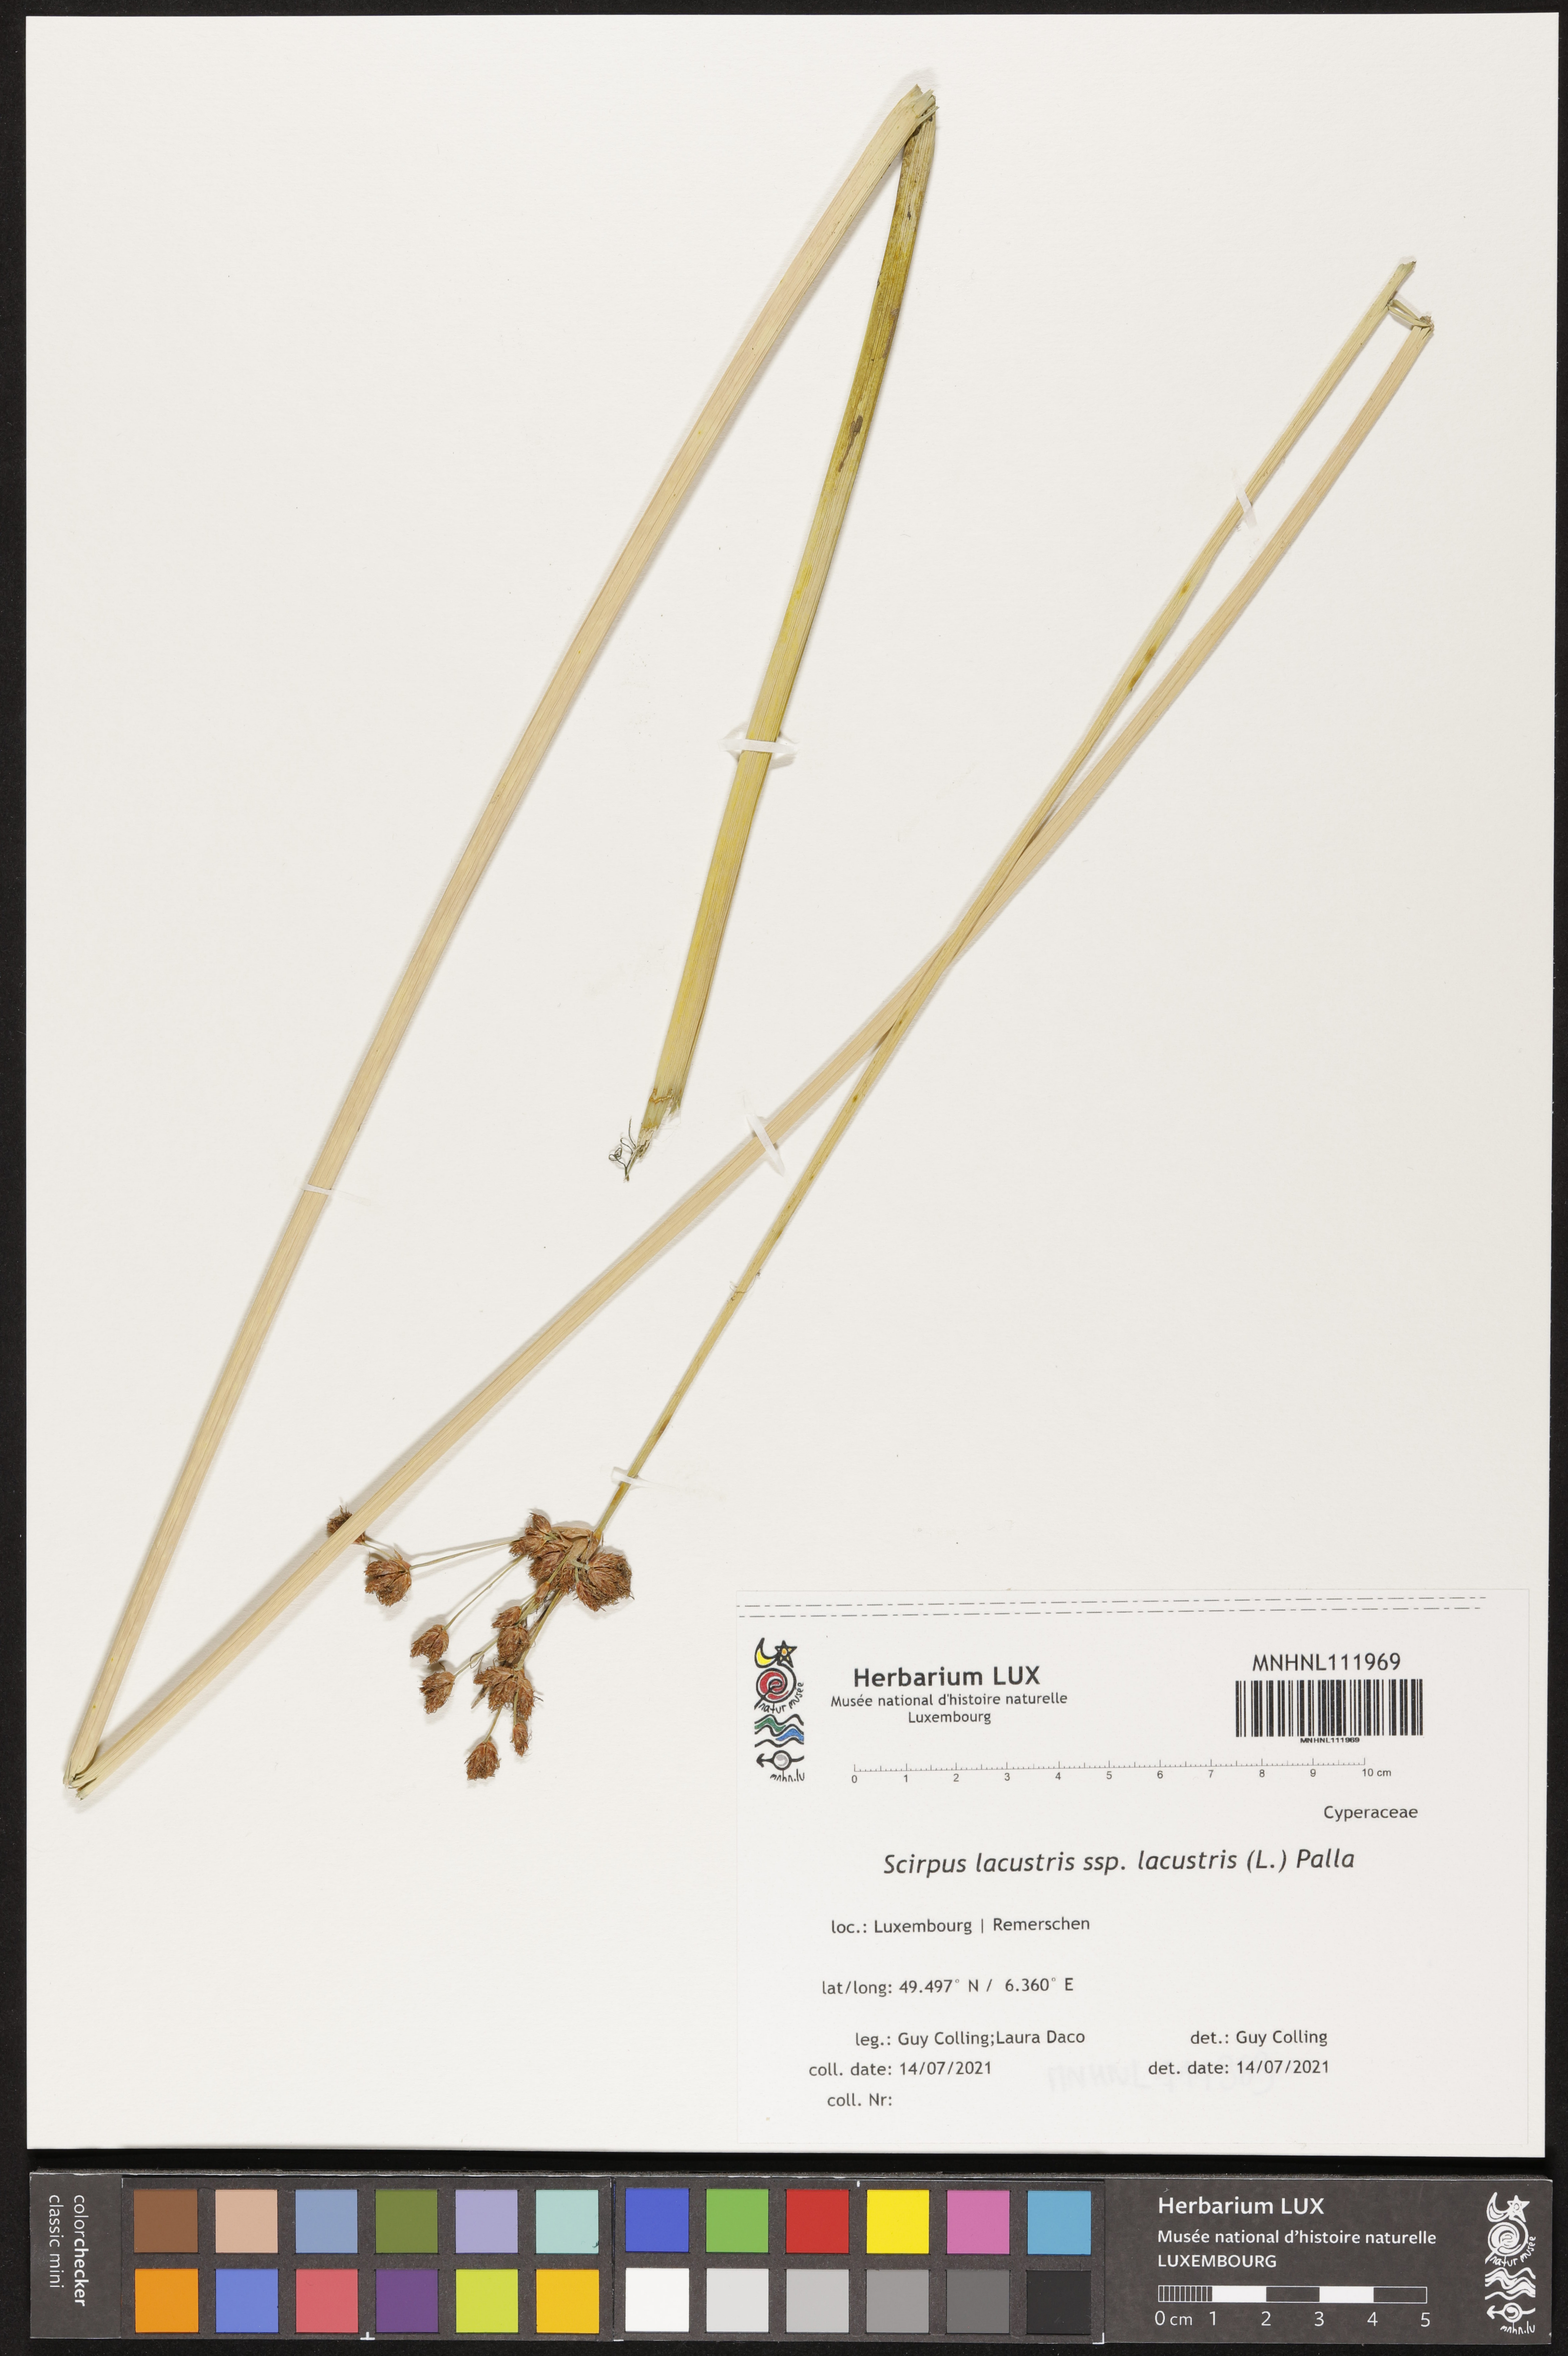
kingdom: Plantae
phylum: Tracheophyta
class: Liliopsida
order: Poales
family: Cyperaceae
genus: Schoenoplectus
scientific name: Schoenoplectus lacustris
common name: Common club-rush
